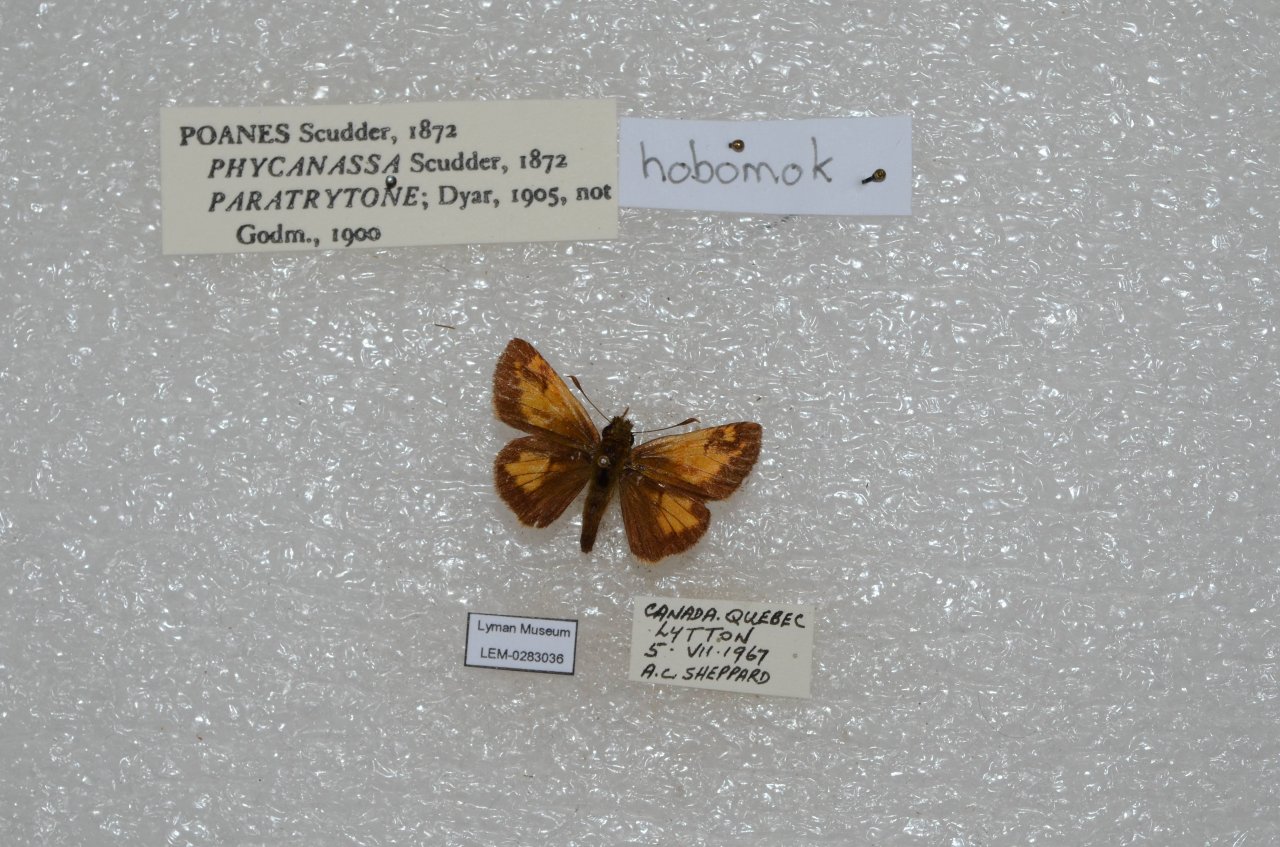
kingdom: Animalia
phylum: Arthropoda
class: Insecta
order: Lepidoptera
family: Hesperiidae
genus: Lon
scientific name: Lon hobomok
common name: Hobomok Skipper
